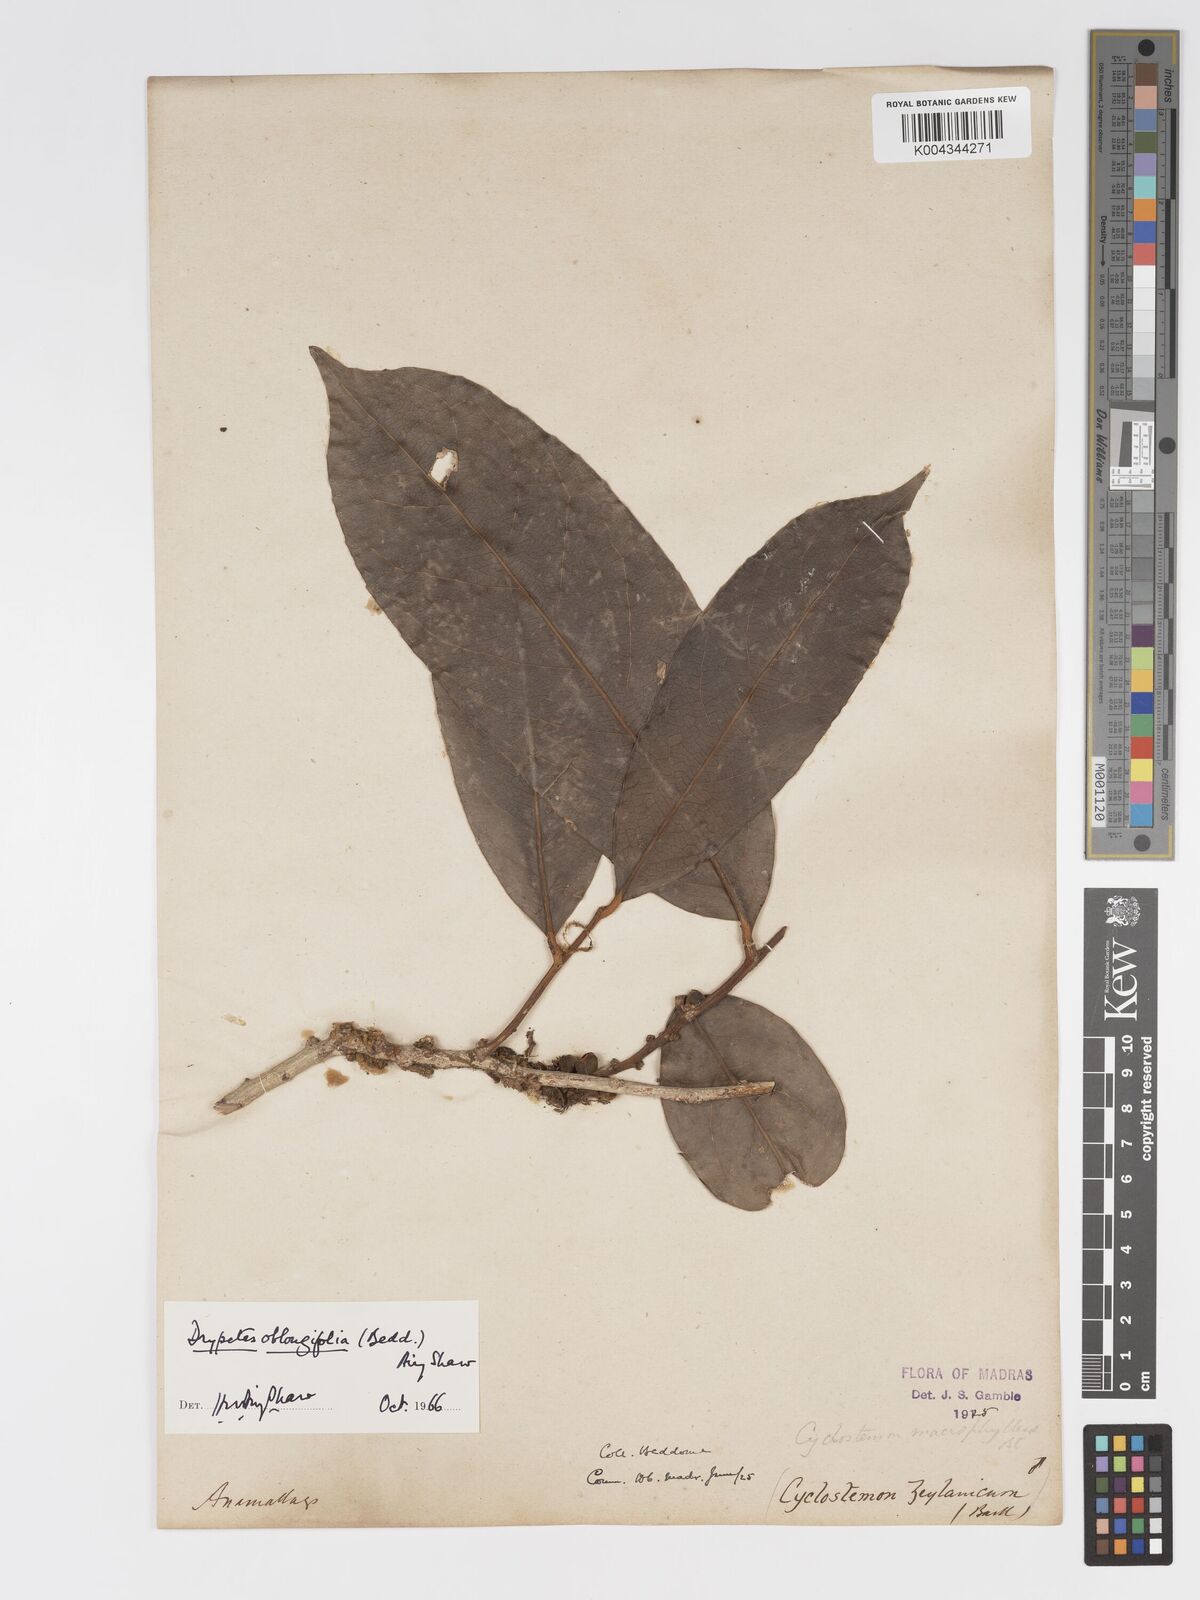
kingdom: Plantae
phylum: Tracheophyta
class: Magnoliopsida
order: Malpighiales
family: Putranjivaceae
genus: Drypetes
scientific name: Drypetes oblongifolia
